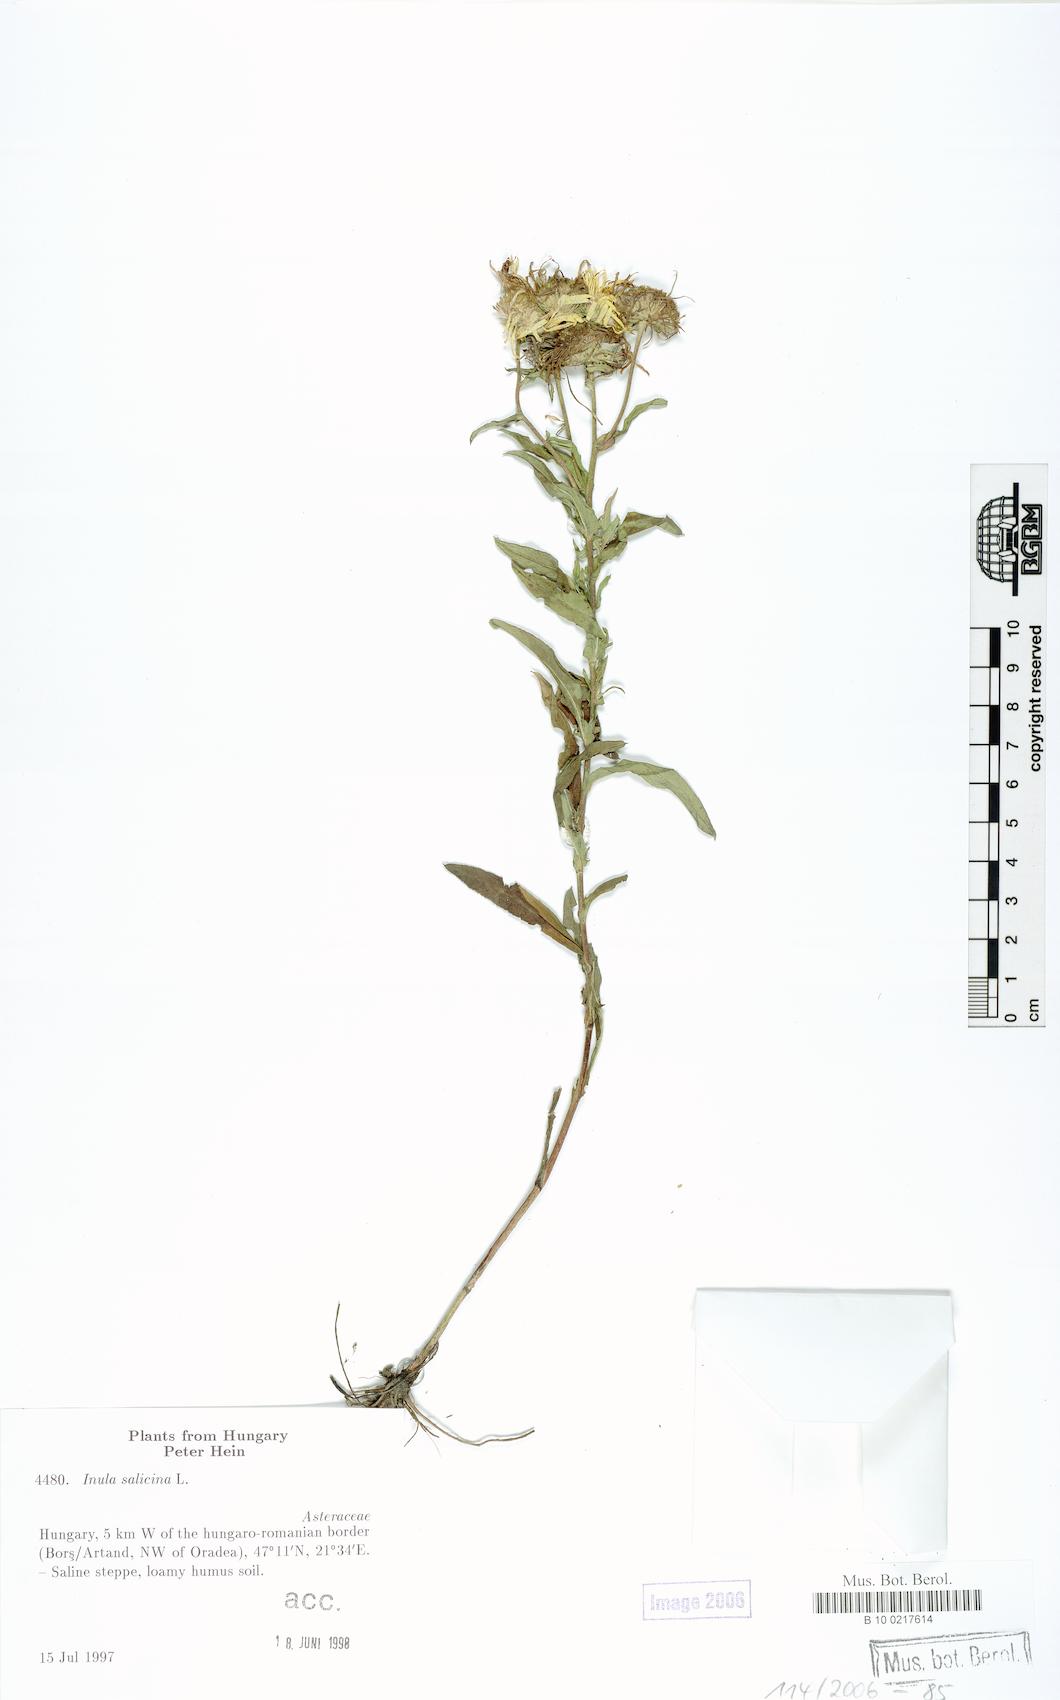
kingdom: Plantae
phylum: Tracheophyta
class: Magnoliopsida
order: Asterales
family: Asteraceae
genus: Pentanema
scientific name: Pentanema britannicum
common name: British elecampane
